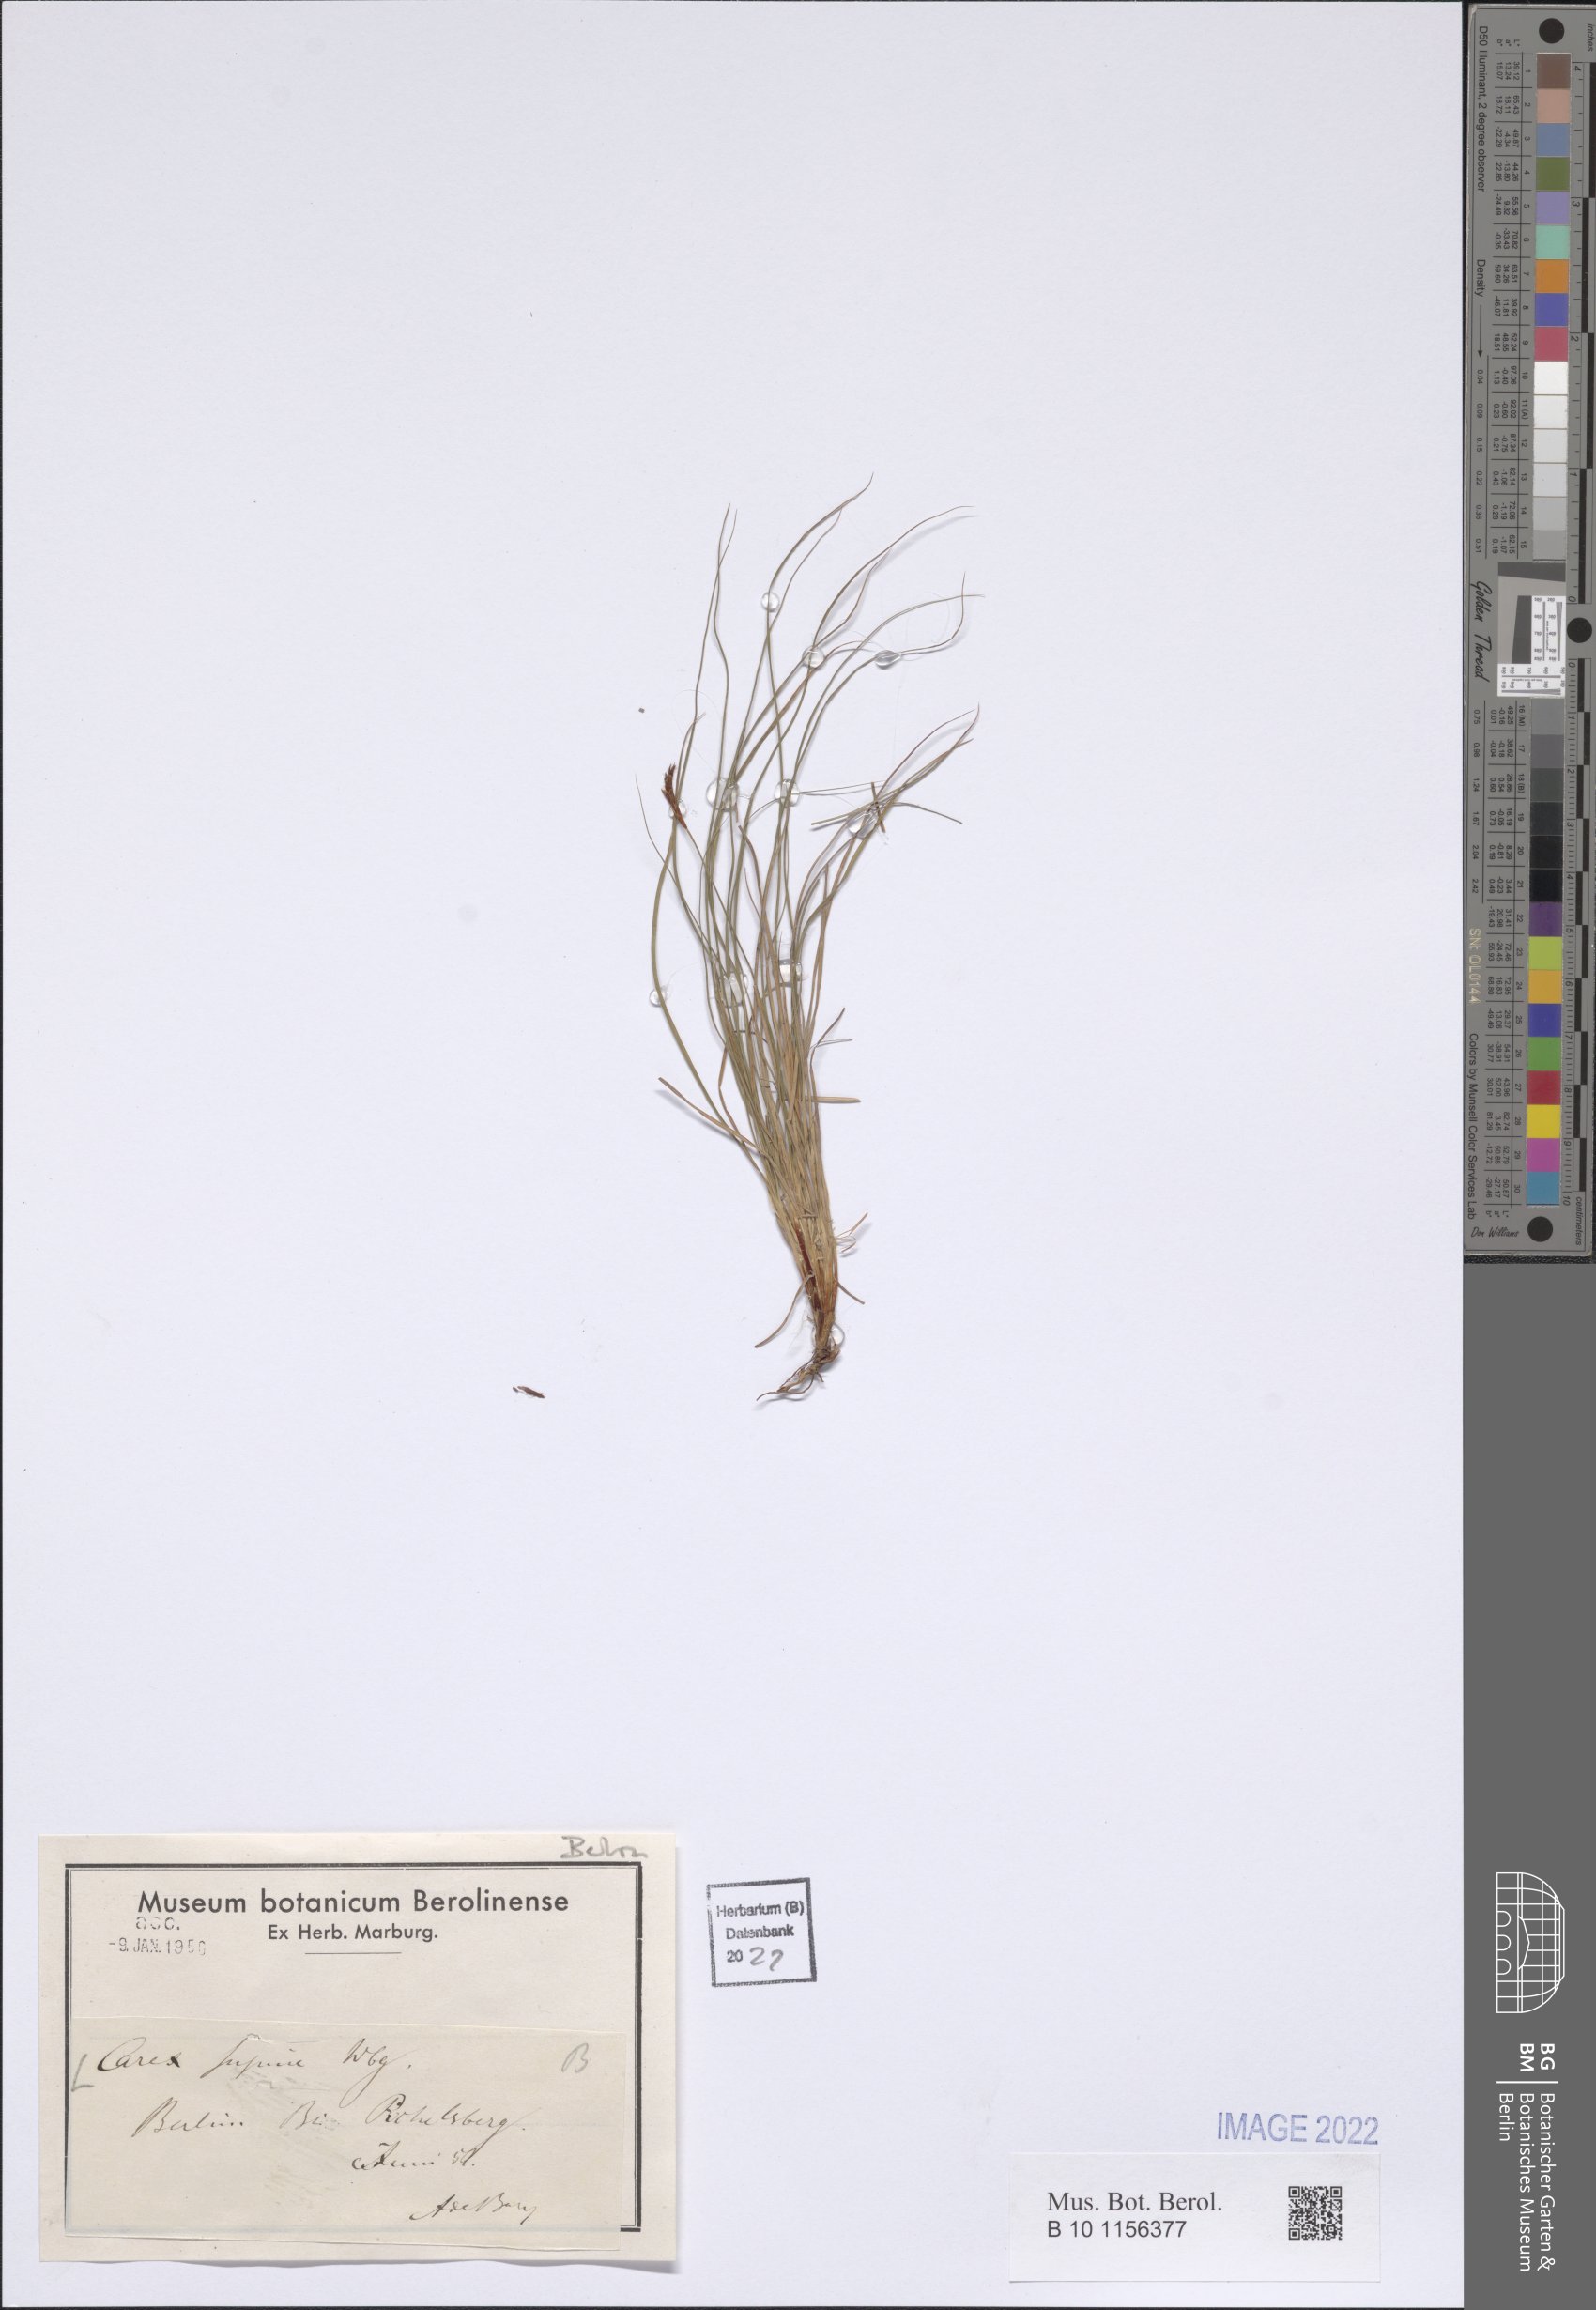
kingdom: Plantae
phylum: Tracheophyta
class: Liliopsida
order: Poales
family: Cyperaceae
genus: Carex
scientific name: Carex supina
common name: Lying-back sedge
